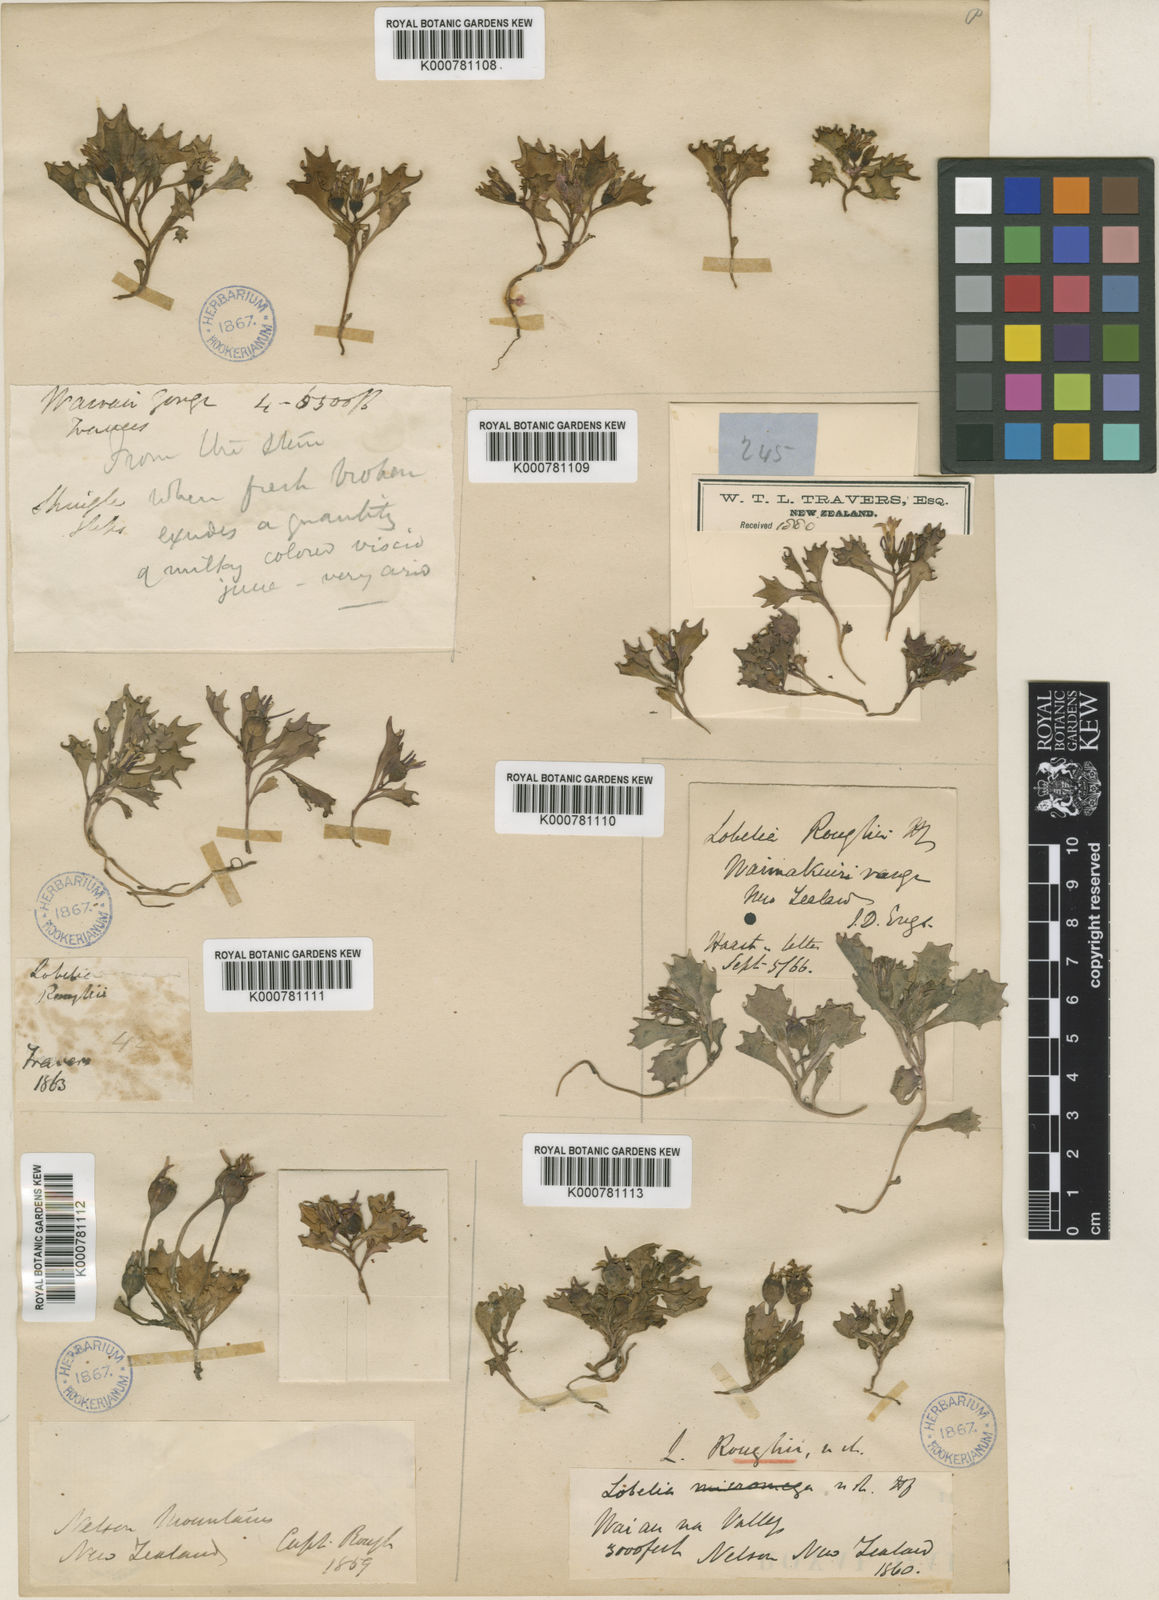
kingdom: Plantae
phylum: Tracheophyta
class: Magnoliopsida
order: Asterales
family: Campanulaceae
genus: Lobelia
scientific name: Lobelia roughii
